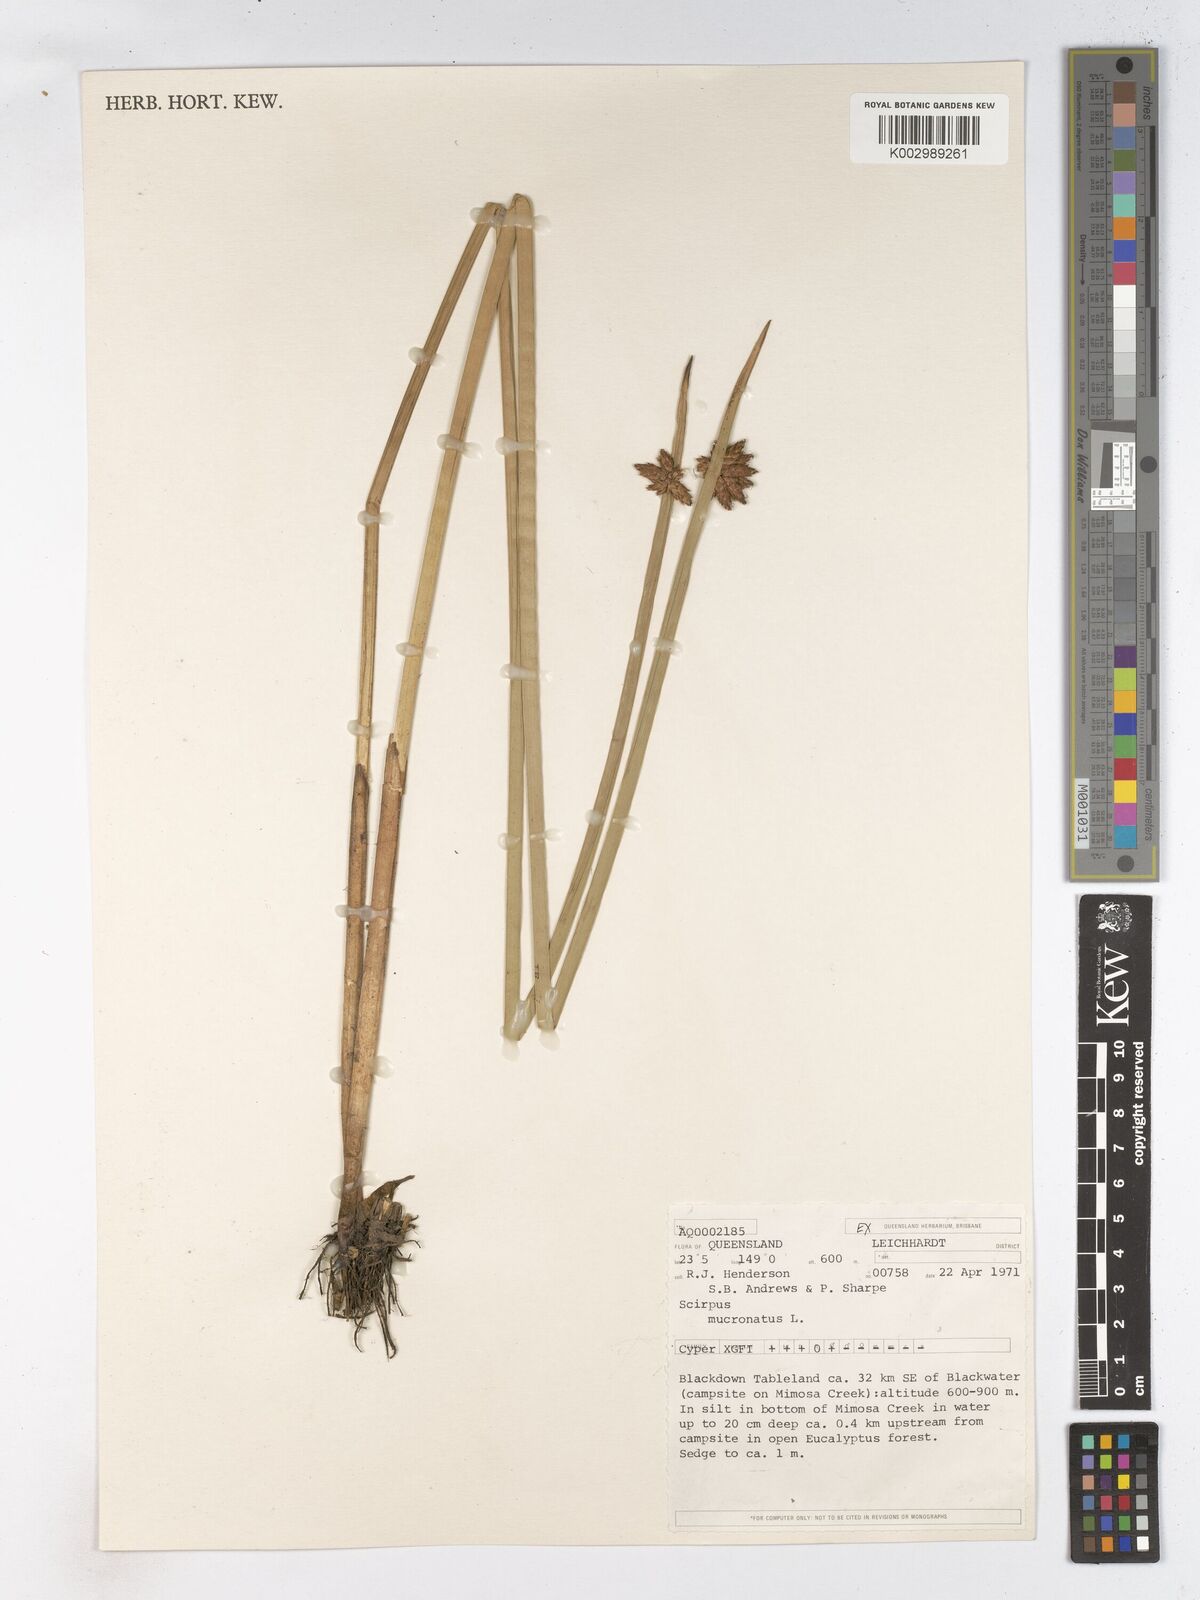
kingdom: Plantae
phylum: Tracheophyta
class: Liliopsida
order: Poales
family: Cyperaceae
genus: Schoenoplectiella
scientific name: Schoenoplectiella mucronata
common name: Bog bulrush
